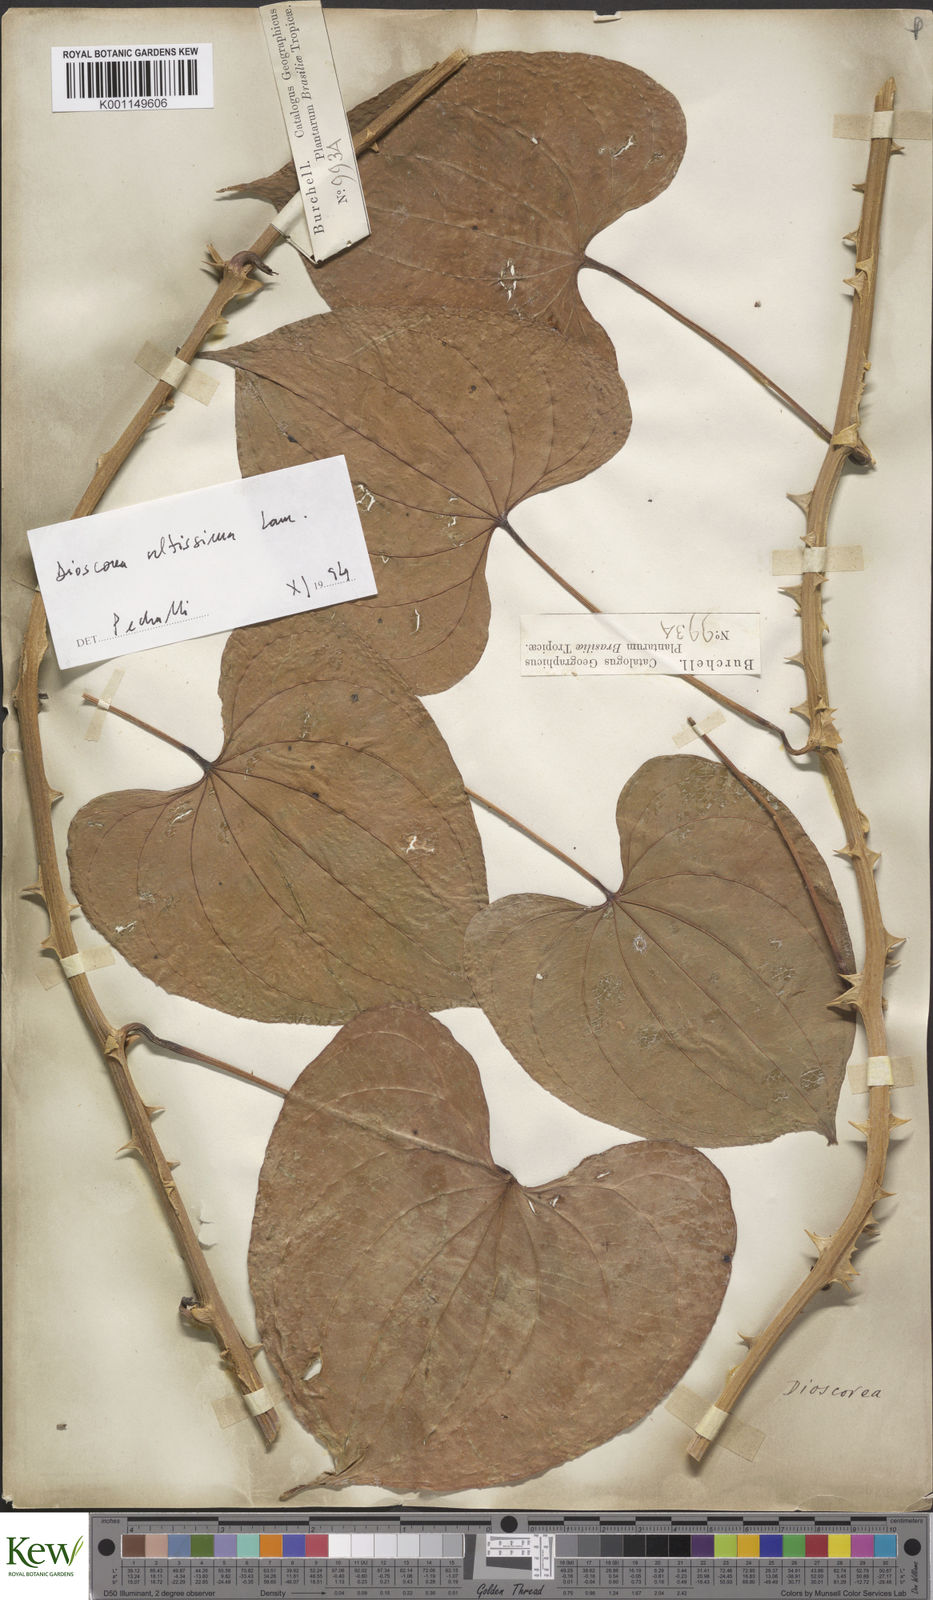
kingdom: Plantae
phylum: Tracheophyta
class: Liliopsida
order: Dioscoreales
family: Dioscoreaceae
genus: Dioscorea
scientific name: Dioscorea chondrocarpa
